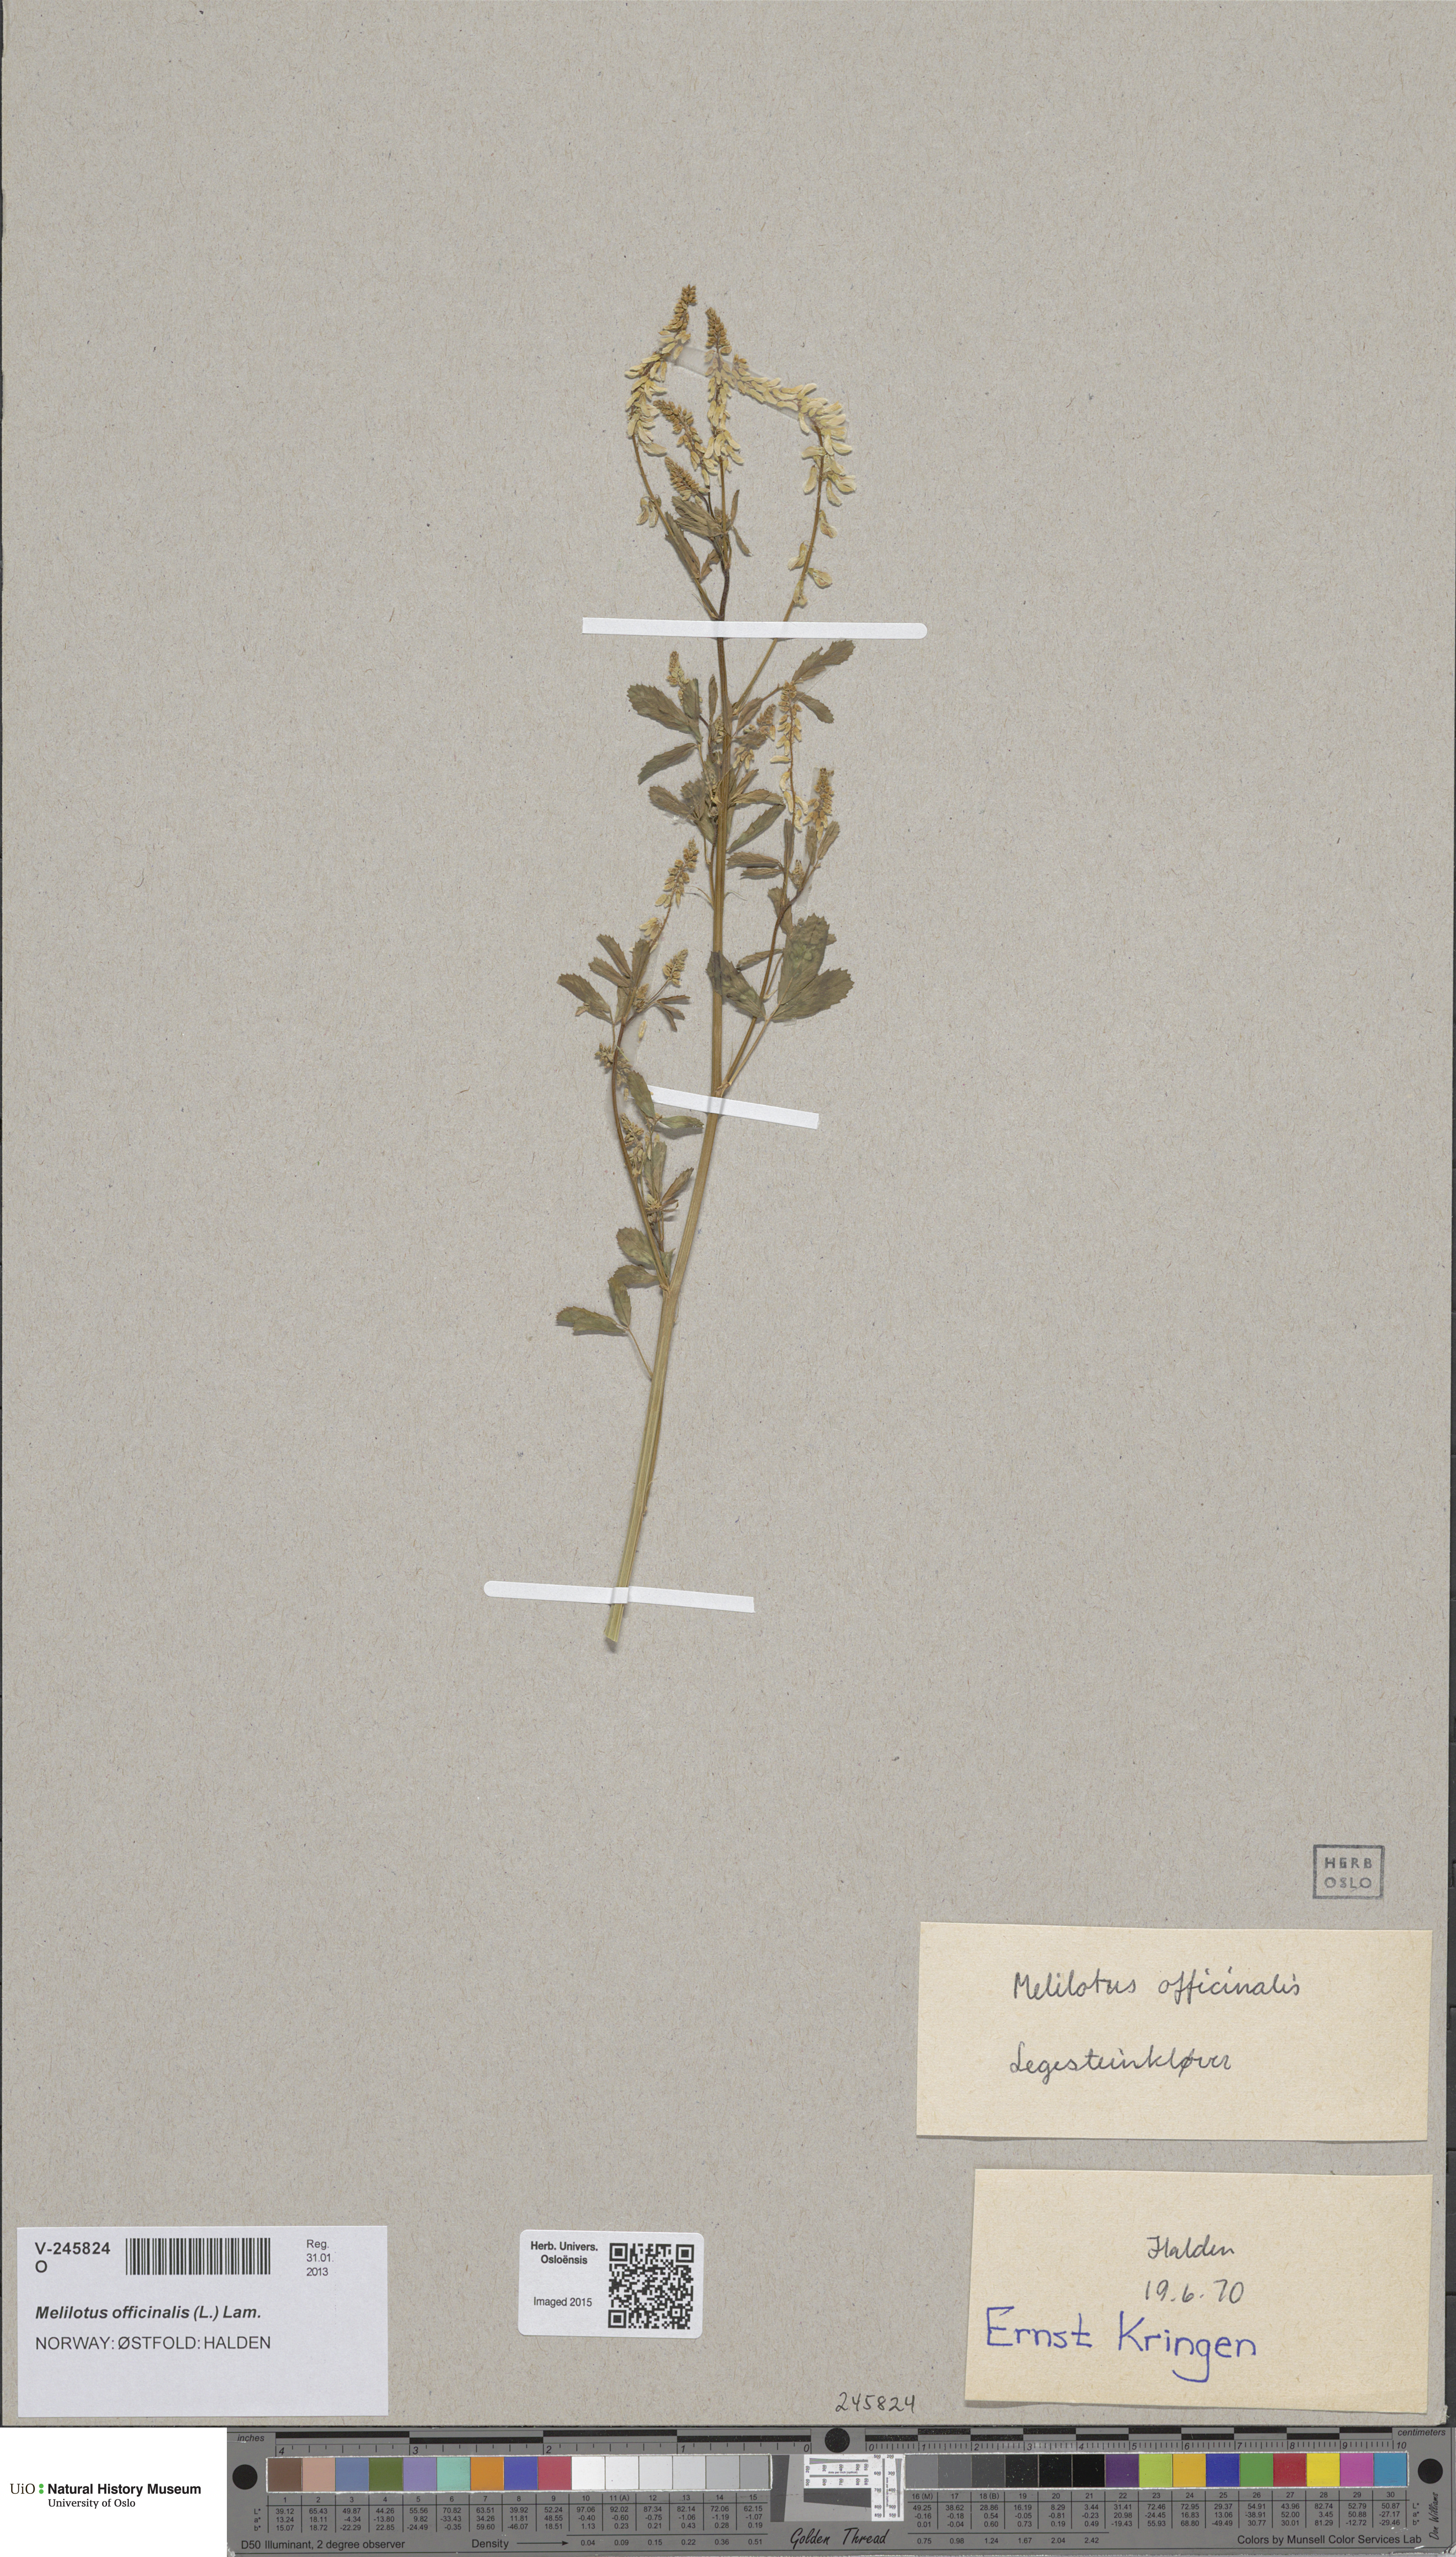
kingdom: Plantae
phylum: Tracheophyta
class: Magnoliopsida
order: Fabales
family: Fabaceae
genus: Melilotus
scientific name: Melilotus officinalis
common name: Sweetclover
